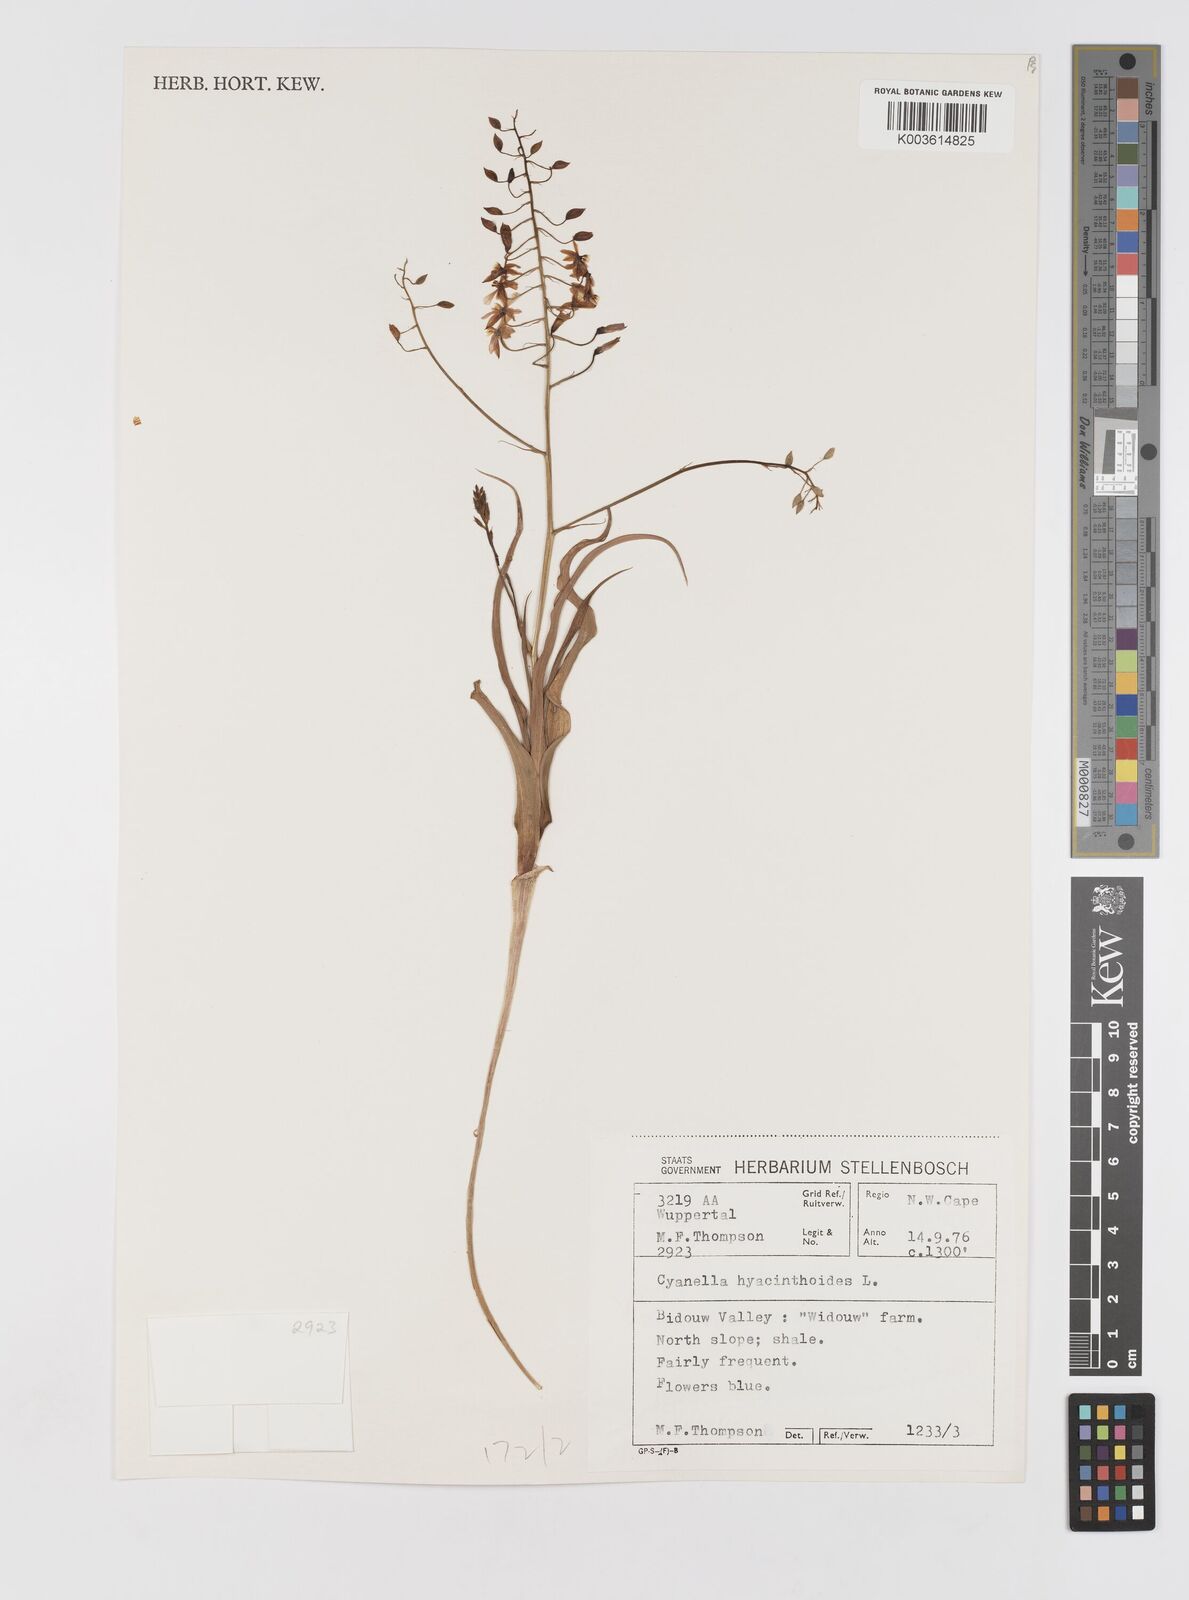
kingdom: Plantae
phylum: Tracheophyta
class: Liliopsida
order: Asparagales
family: Tecophilaeaceae
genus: Cyanella
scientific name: Cyanella hyacinthoides
